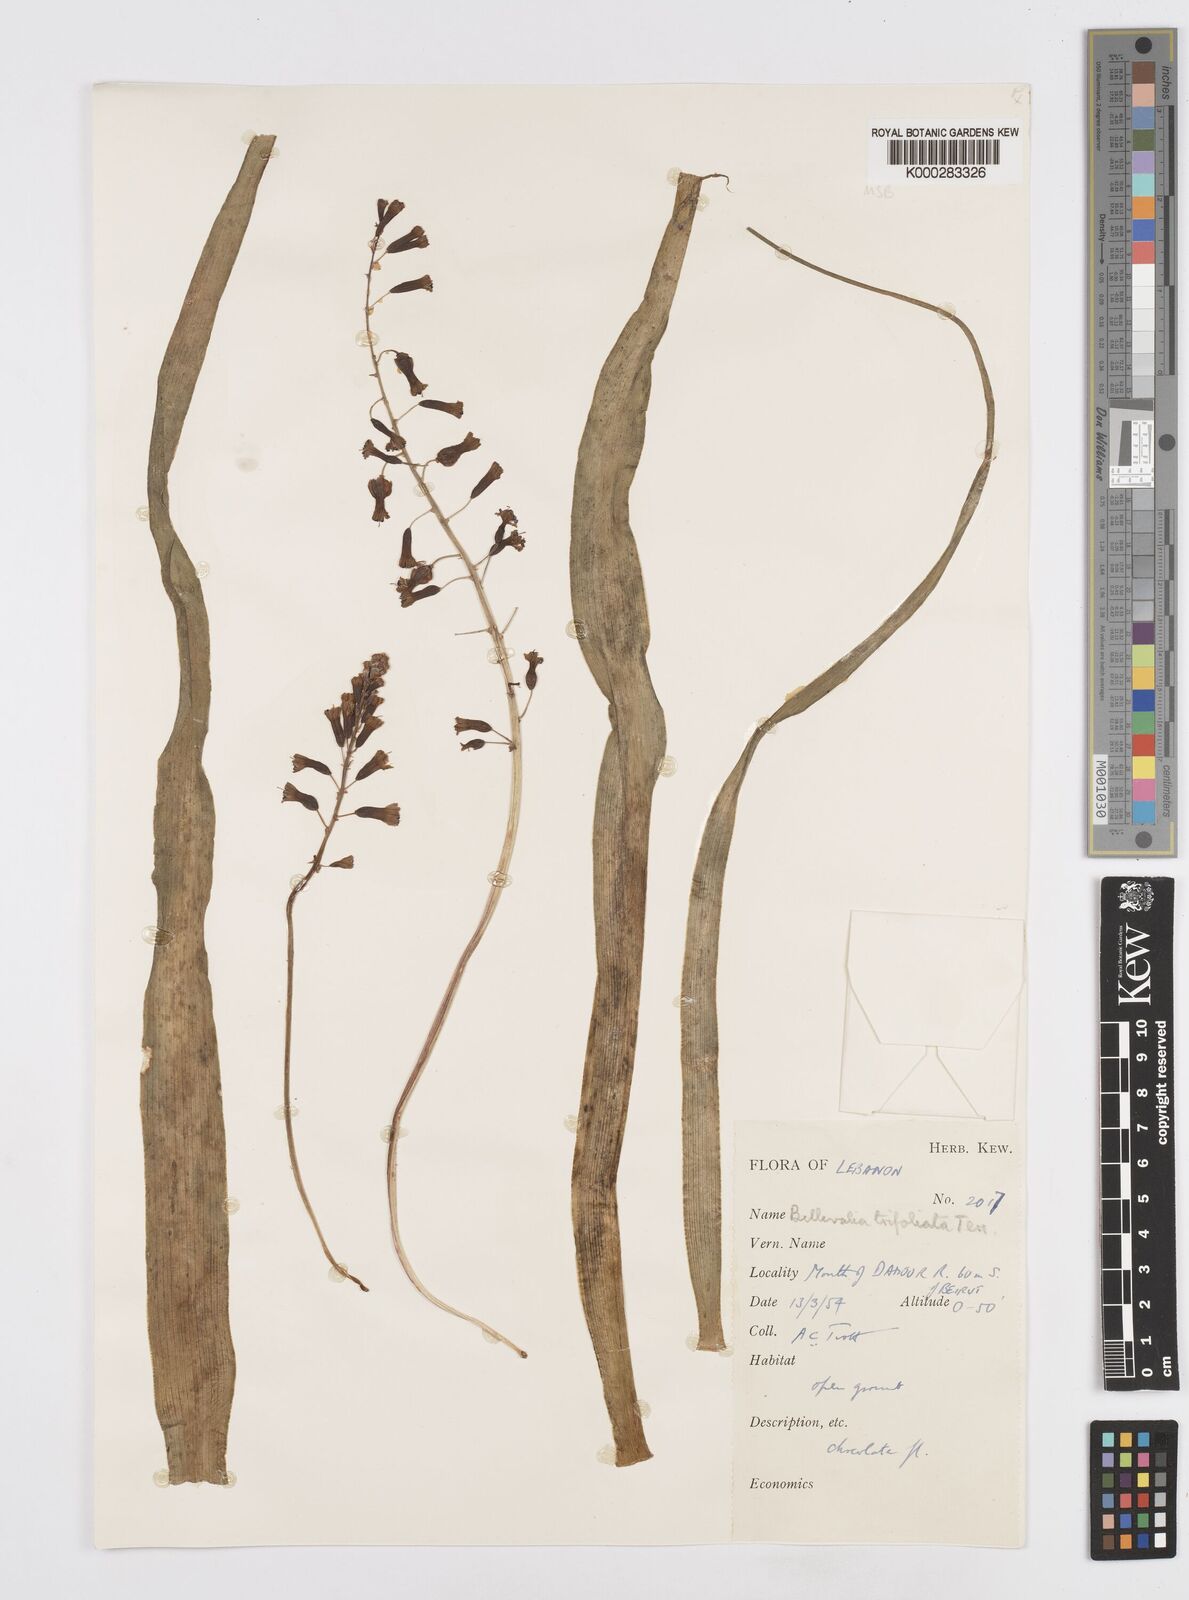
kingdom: Plantae
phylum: Tracheophyta
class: Liliopsida
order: Asparagales
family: Asparagaceae
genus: Bellevalia
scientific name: Bellevalia trifoliata
